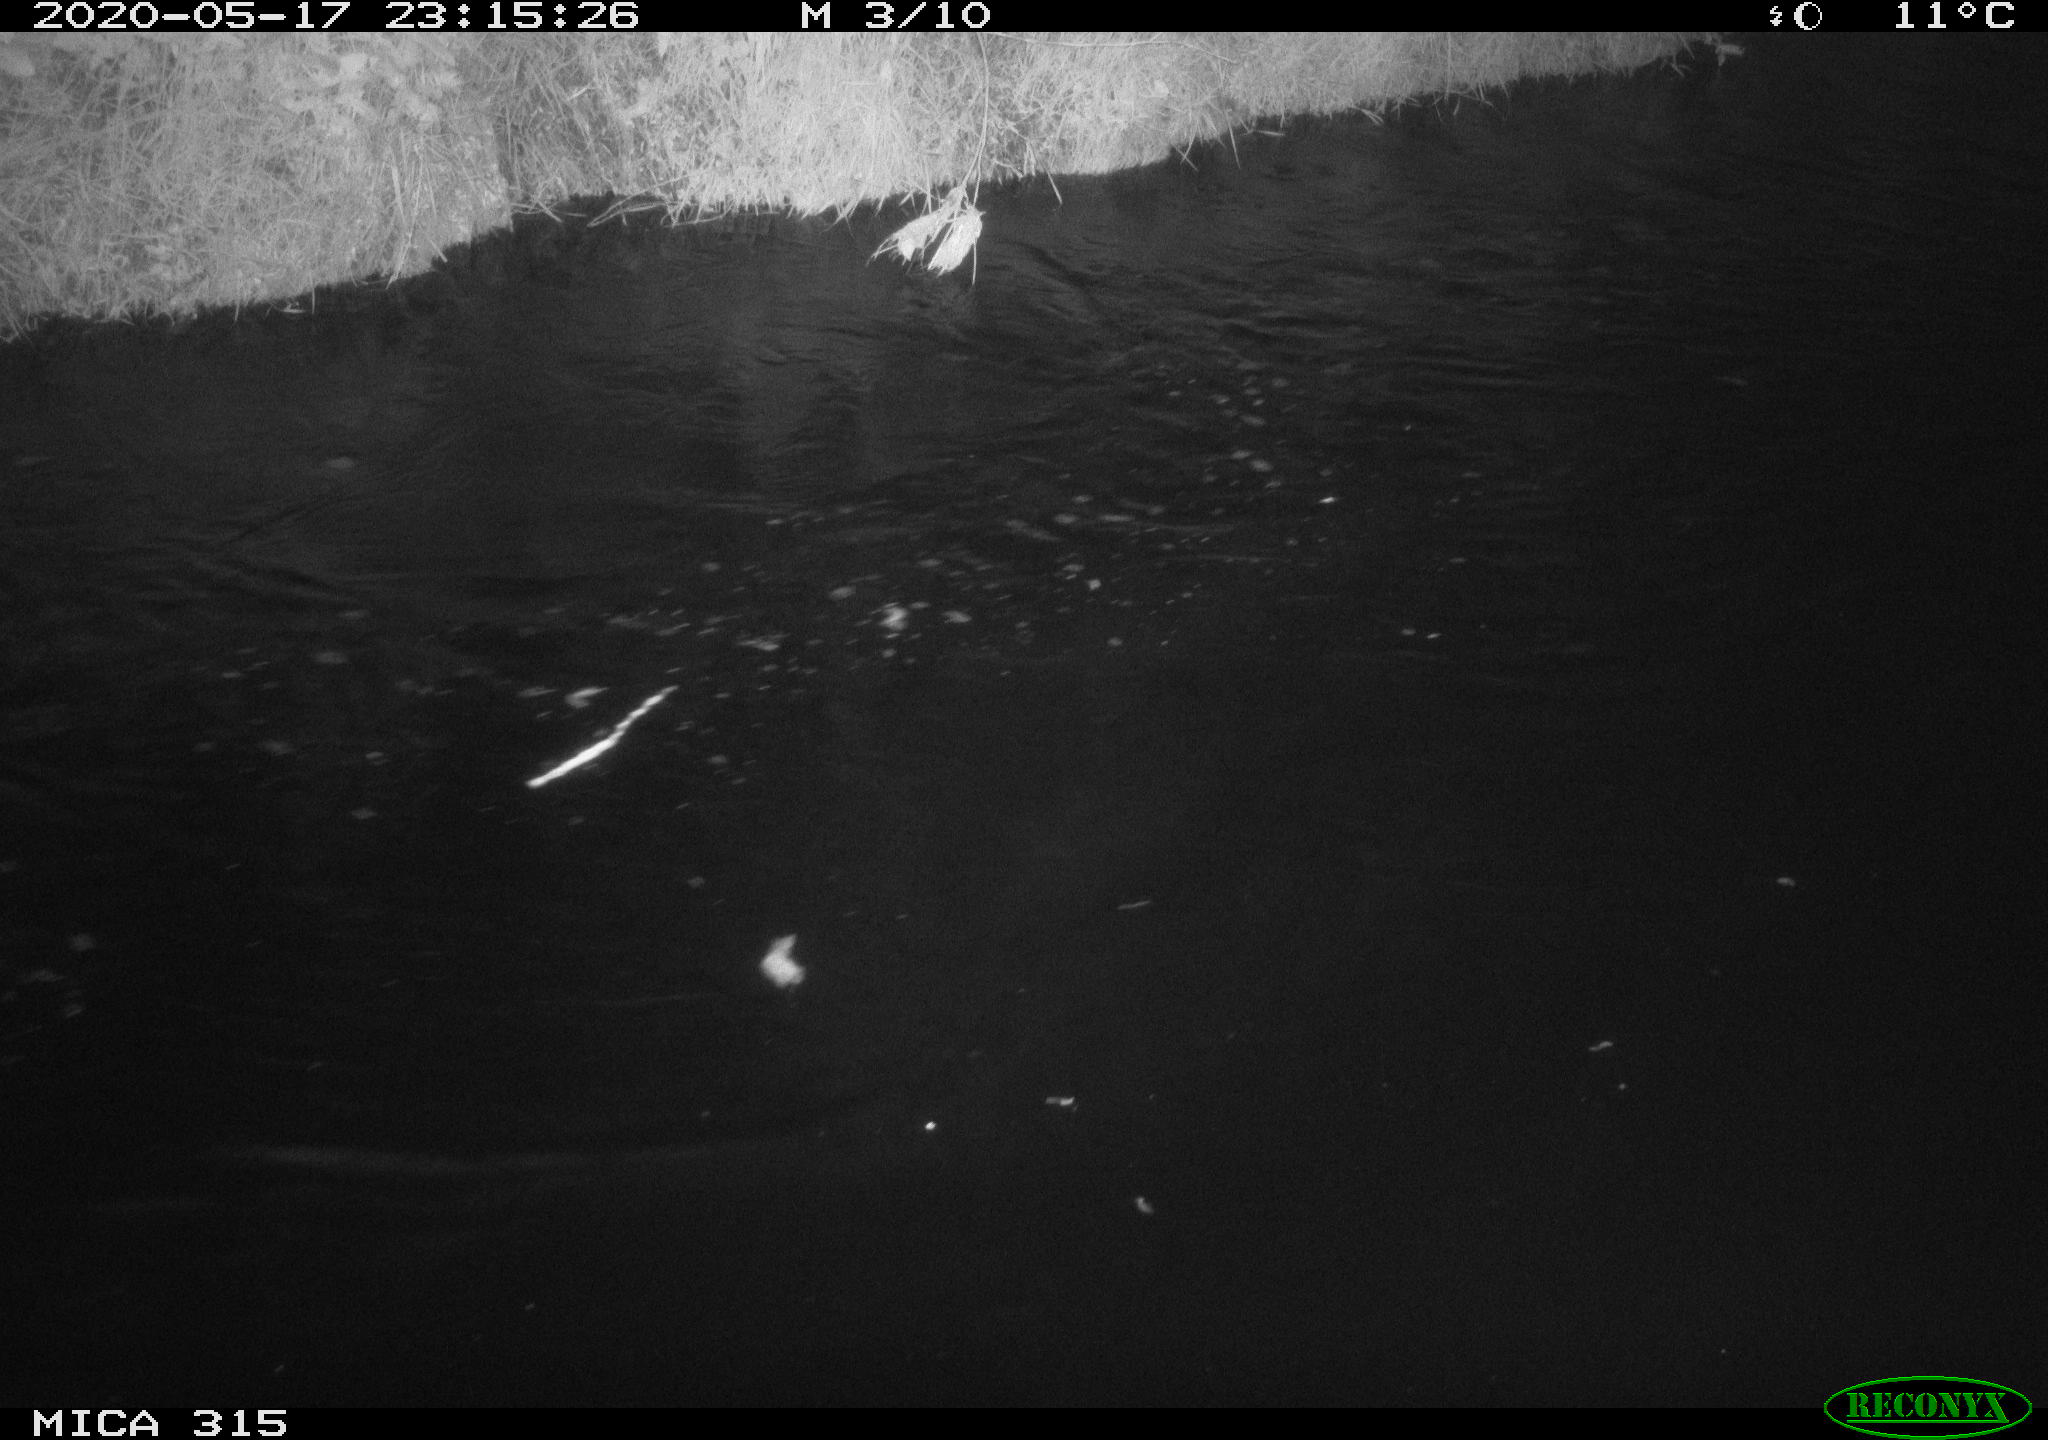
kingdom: Animalia
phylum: Chordata
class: Aves
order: Anseriformes
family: Anatidae
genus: Anas
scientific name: Anas platyrhynchos
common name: Mallard
